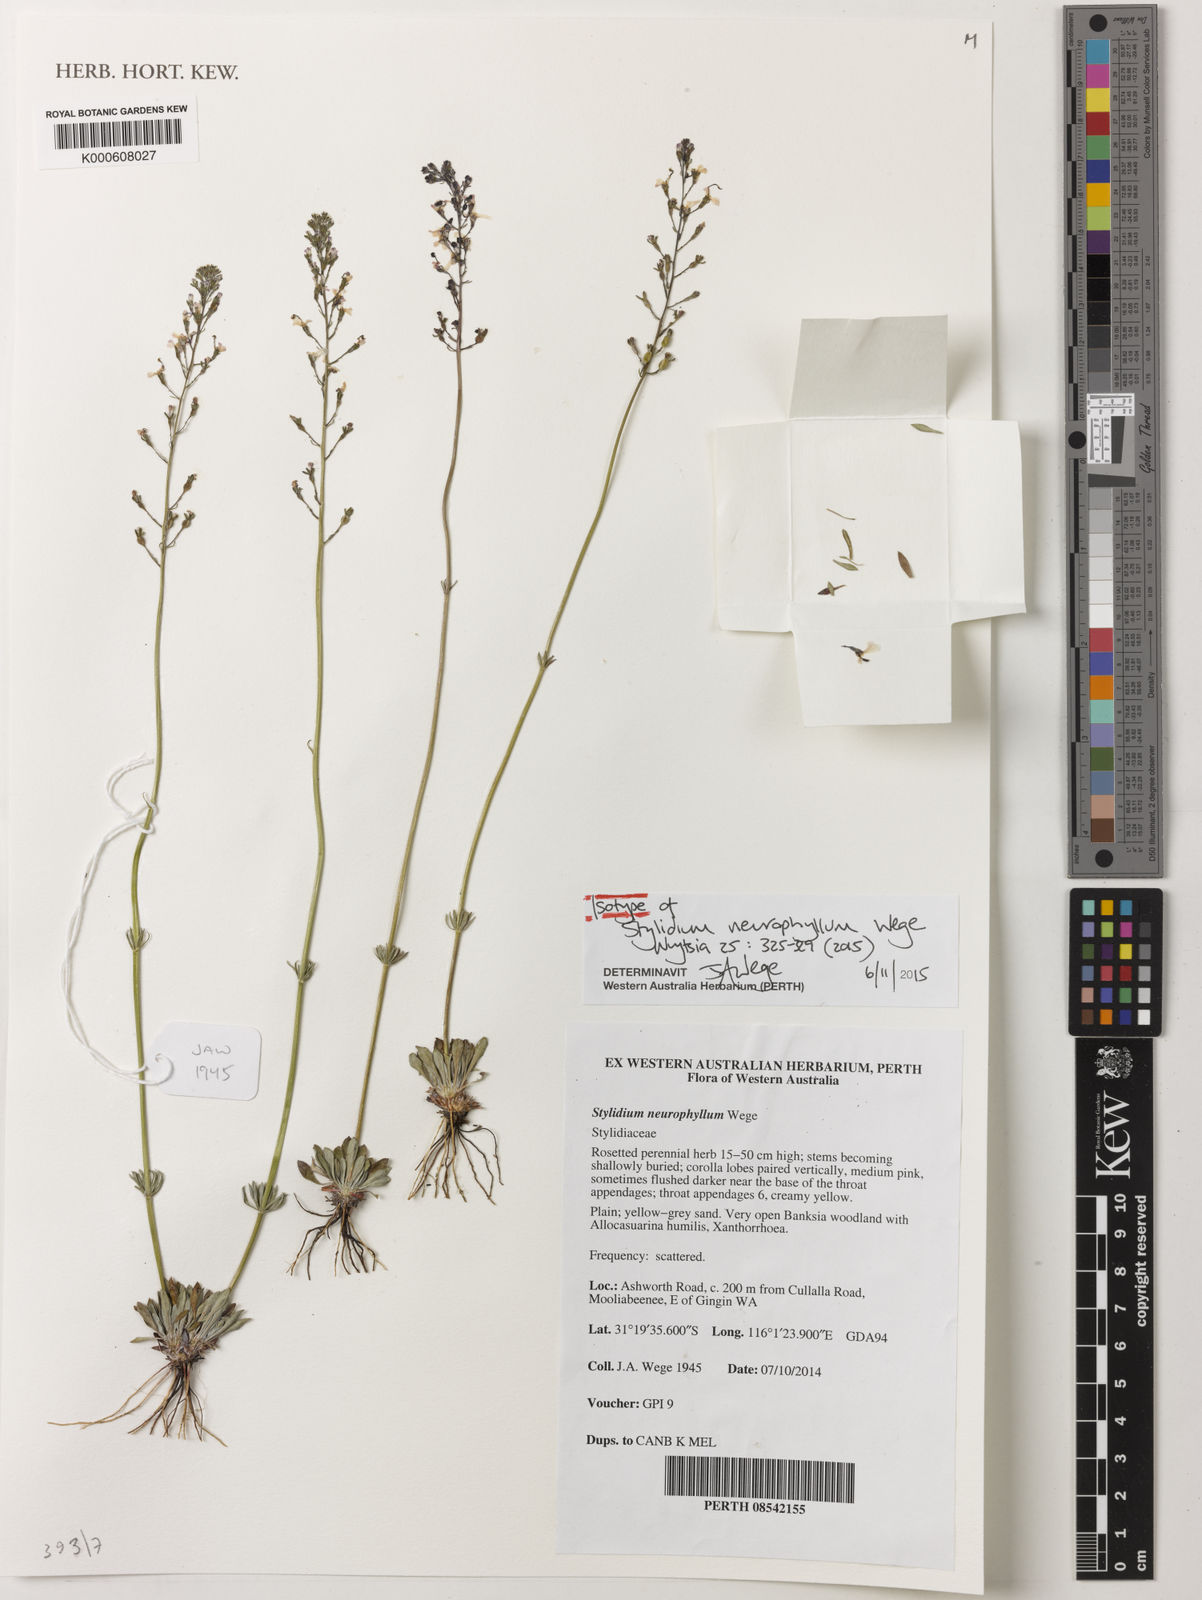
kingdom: Plantae
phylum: Tracheophyta
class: Magnoliopsida
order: Asterales
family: Stylidiaceae
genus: Stylidium
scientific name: Stylidium
